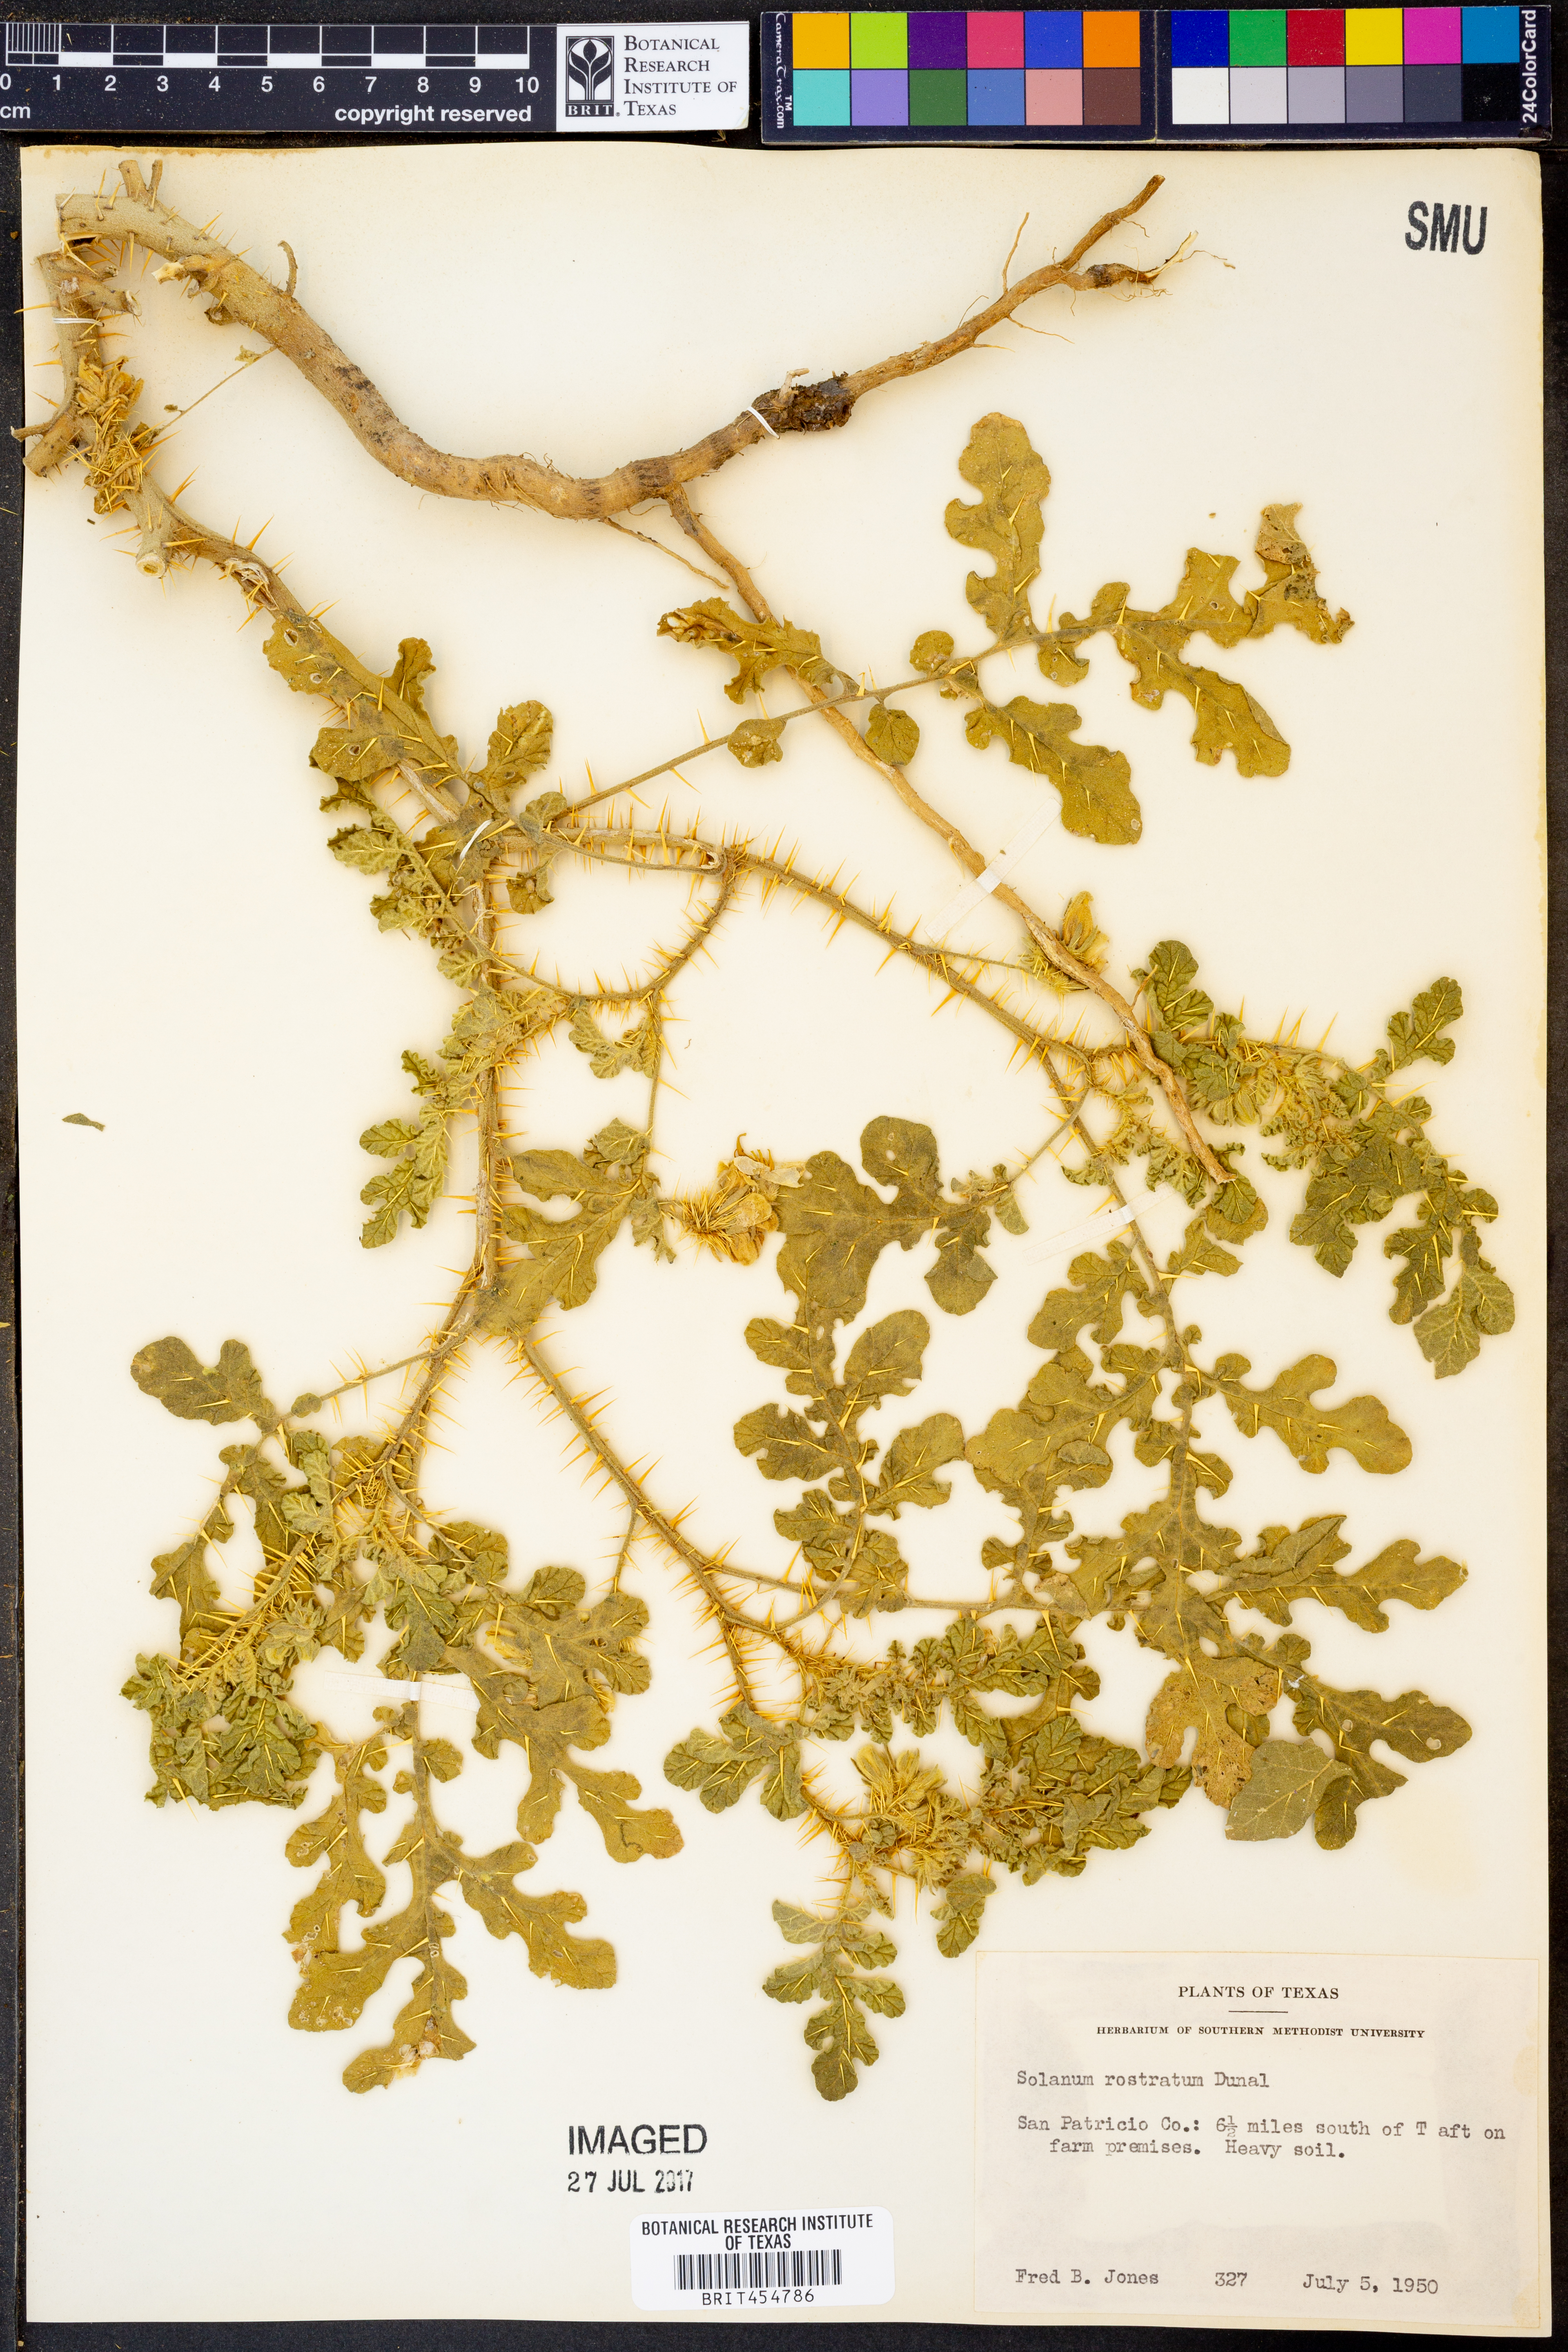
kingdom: Plantae
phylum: Tracheophyta
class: Magnoliopsida
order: Solanales
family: Solanaceae
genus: Solanum
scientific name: Solanum angustifolium
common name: Buffalobur nightshade
